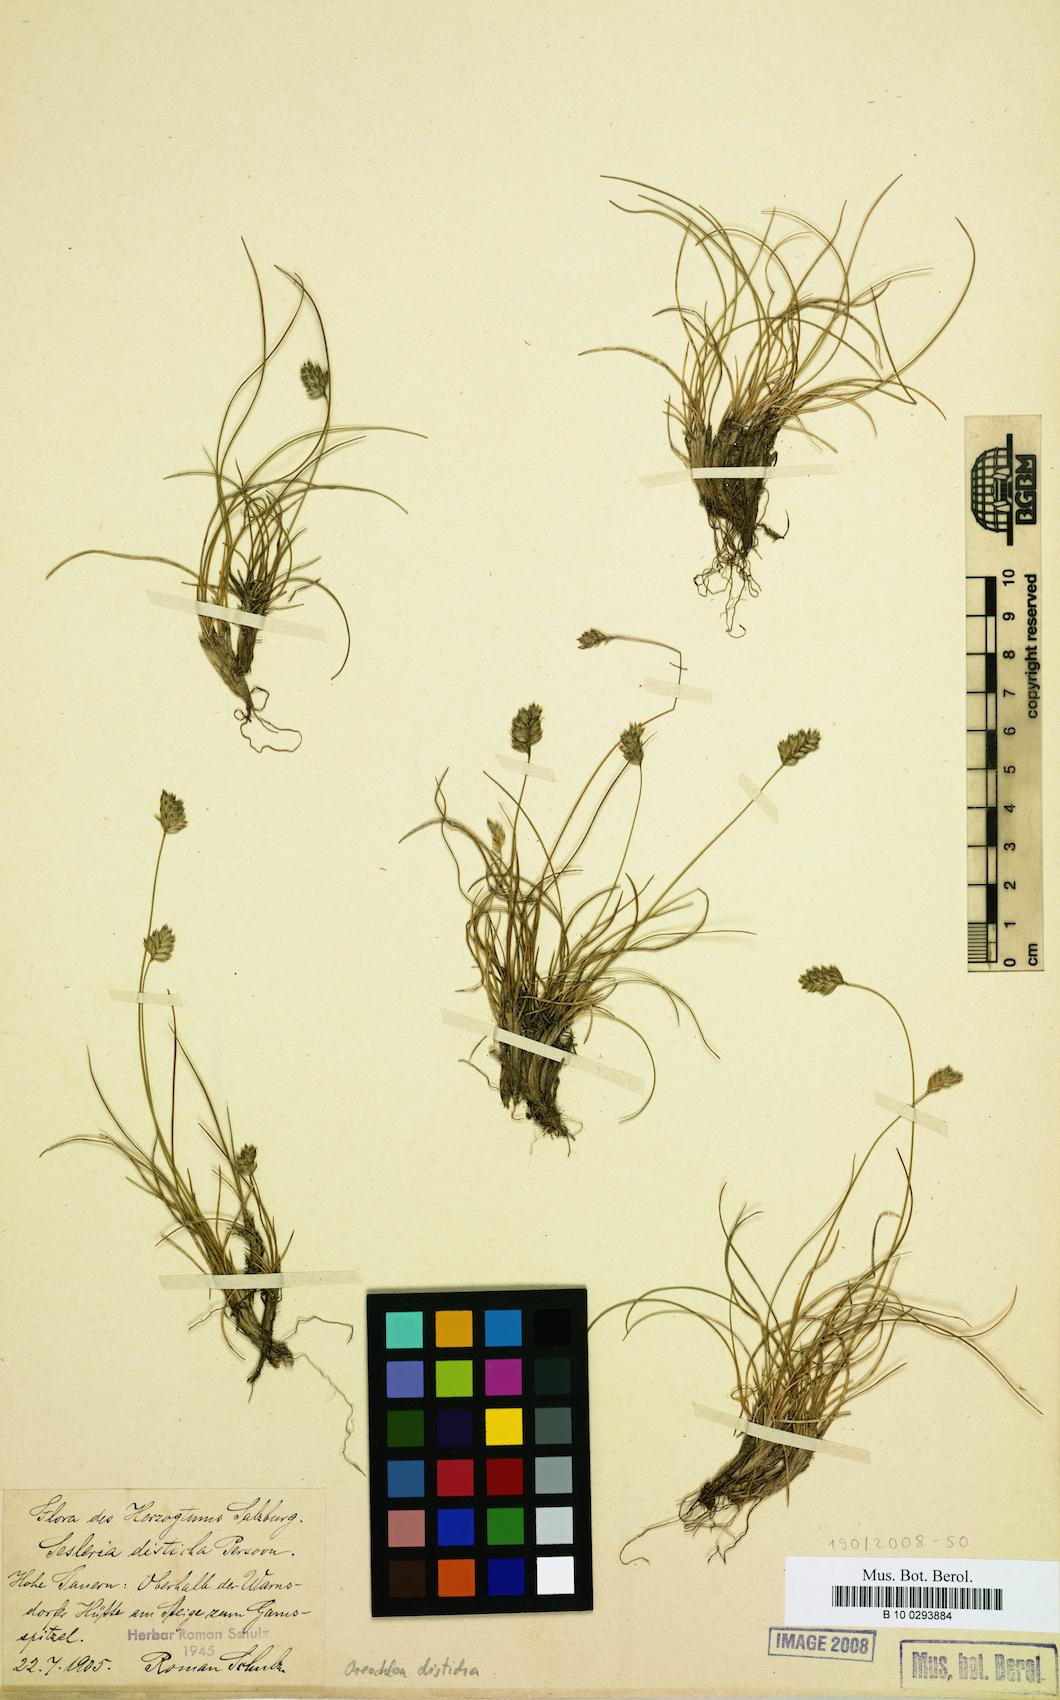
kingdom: Plantae
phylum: Tracheophyta
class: Liliopsida
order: Poales
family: Poaceae
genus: Oreochloa
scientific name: Oreochloa disticha
